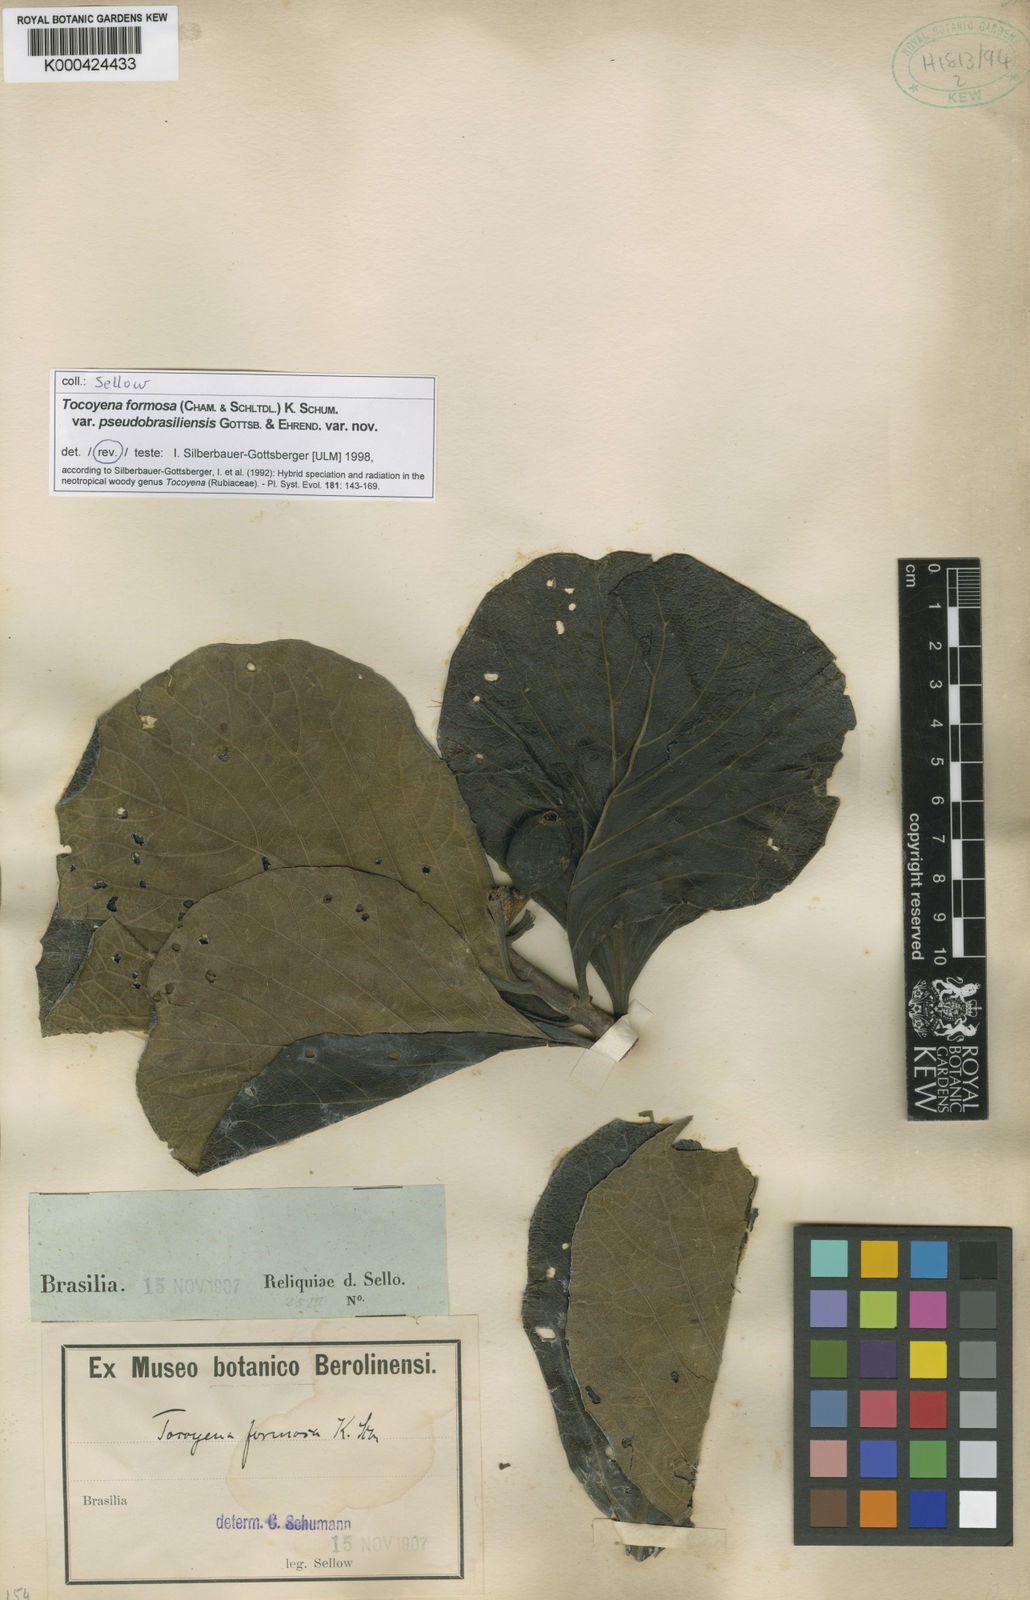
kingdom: Plantae
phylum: Tracheophyta
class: Magnoliopsida
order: Gentianales
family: Rubiaceae
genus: Tocoyena
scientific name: Tocoyena formosa
